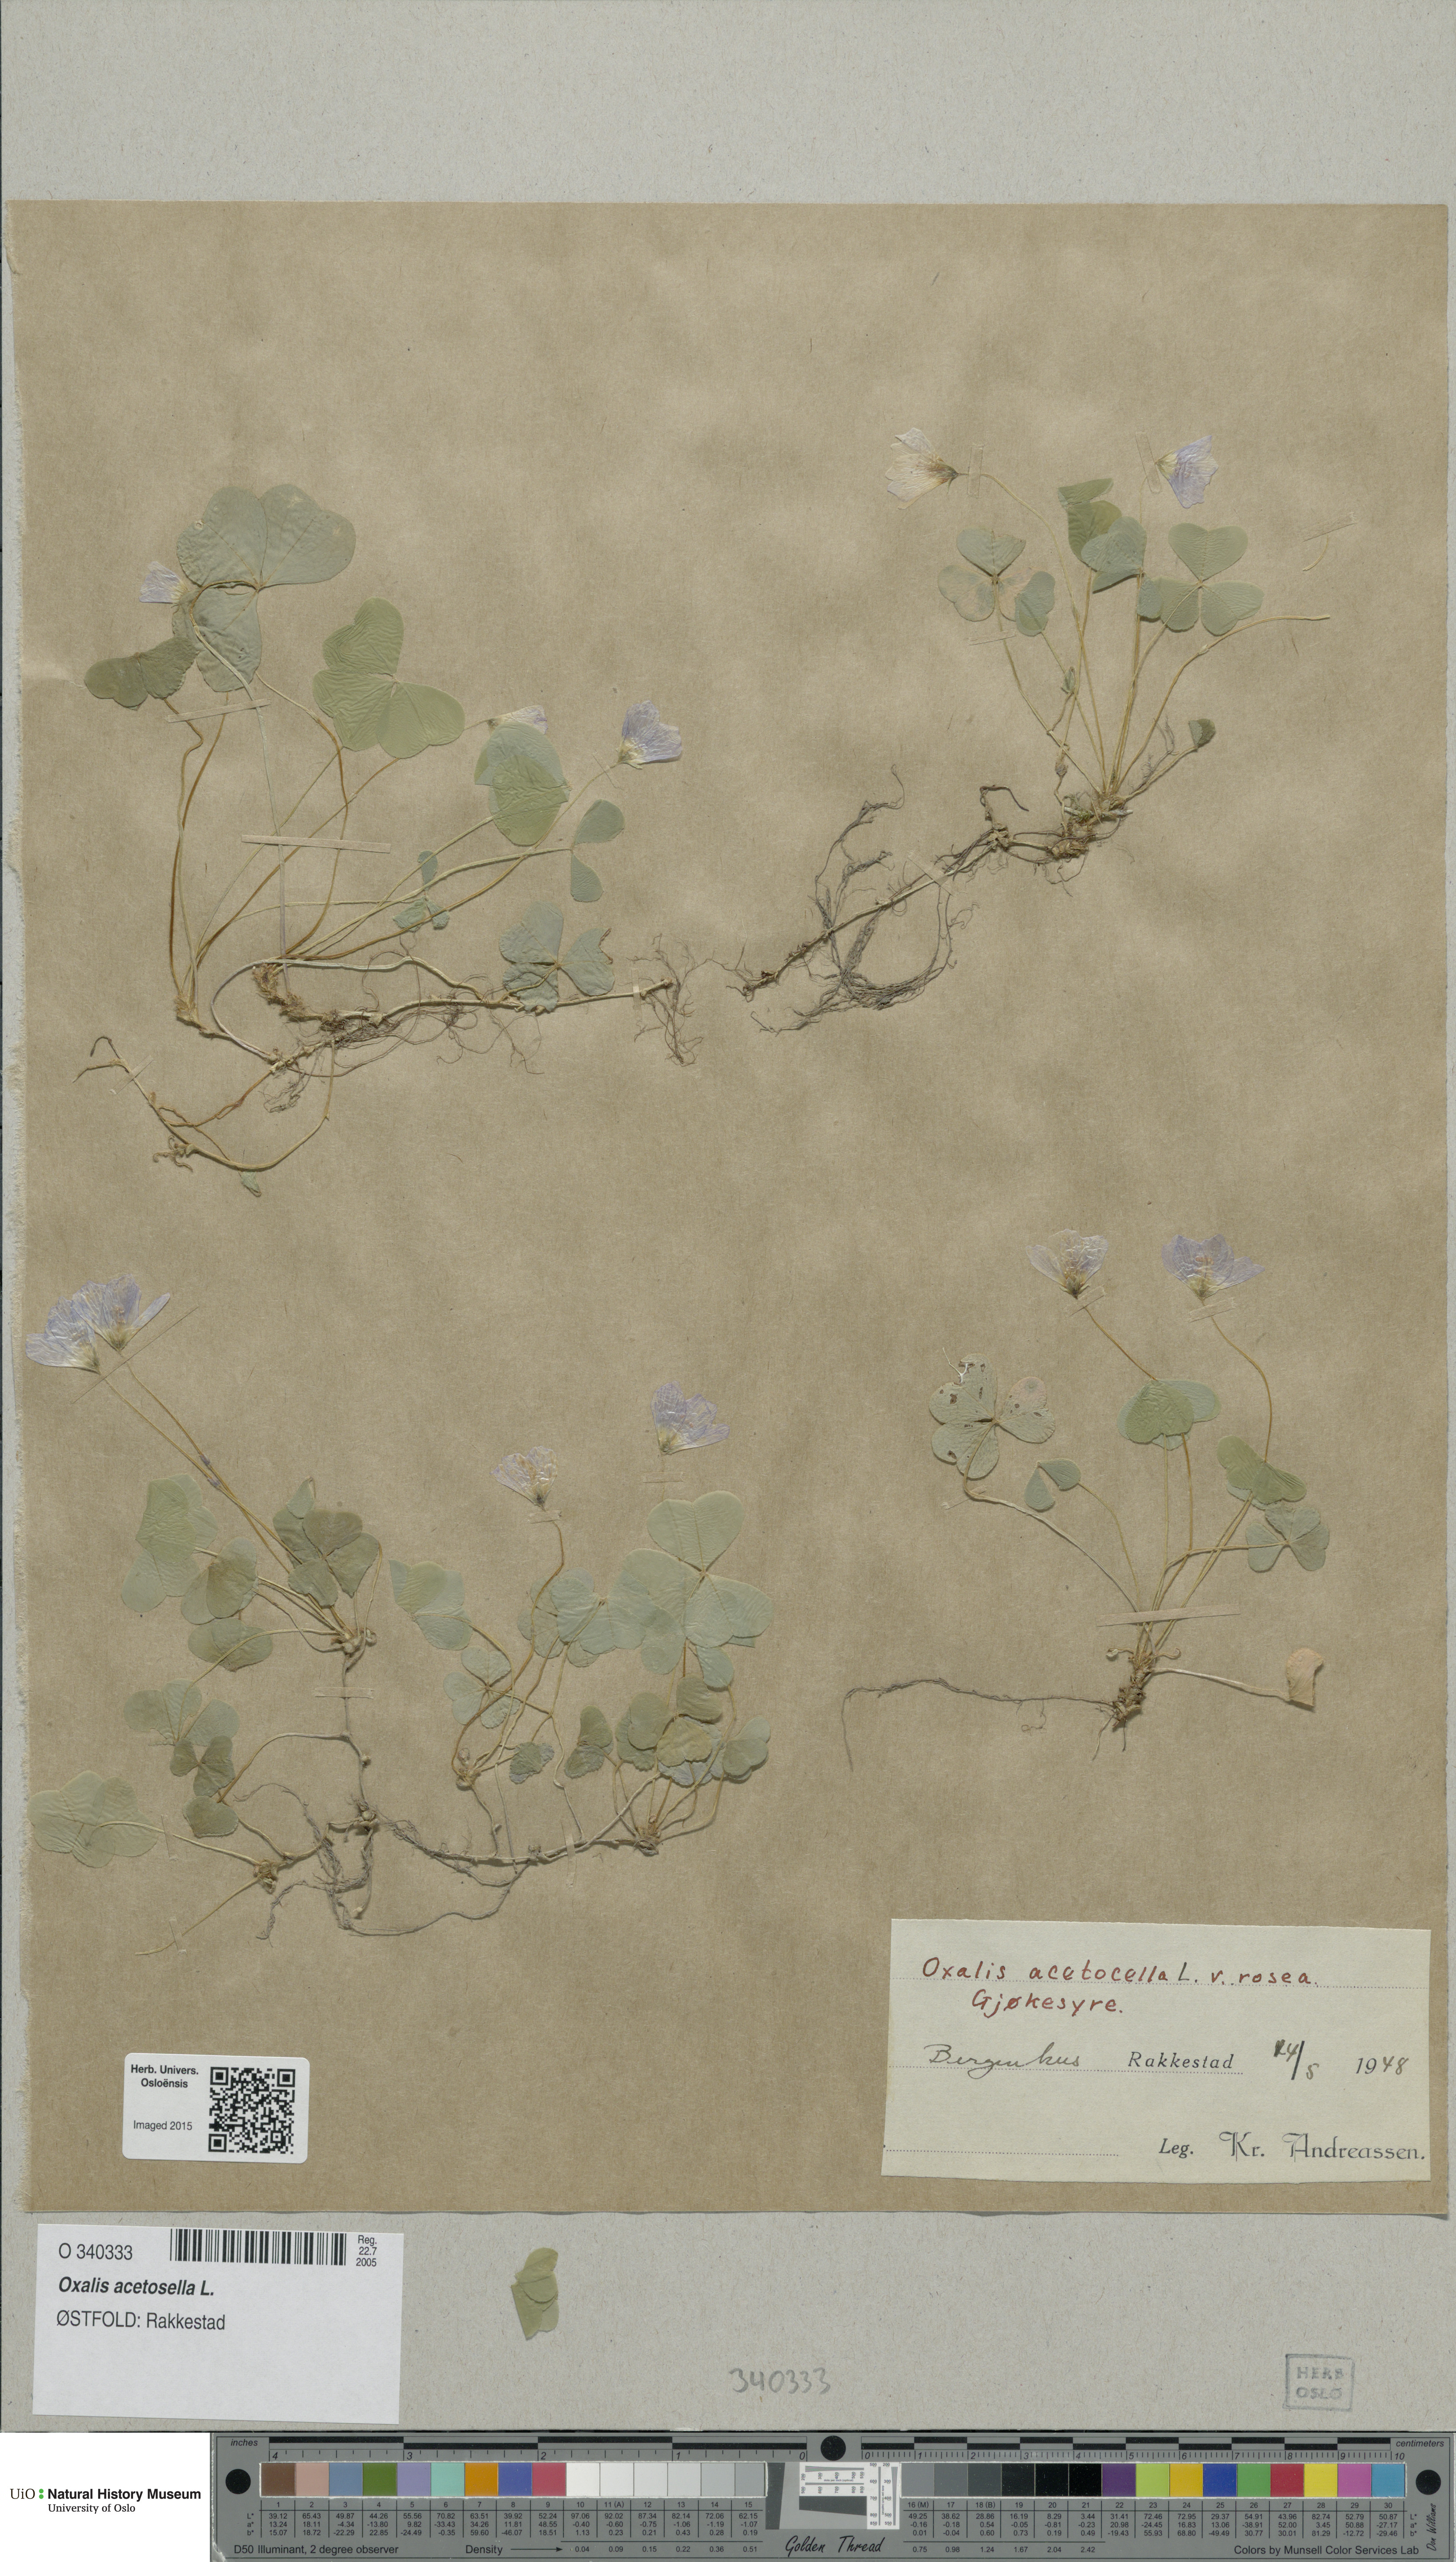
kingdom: Plantae
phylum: Tracheophyta
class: Magnoliopsida
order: Oxalidales
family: Oxalidaceae
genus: Oxalis
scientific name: Oxalis acetosella
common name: Wood-sorrel
